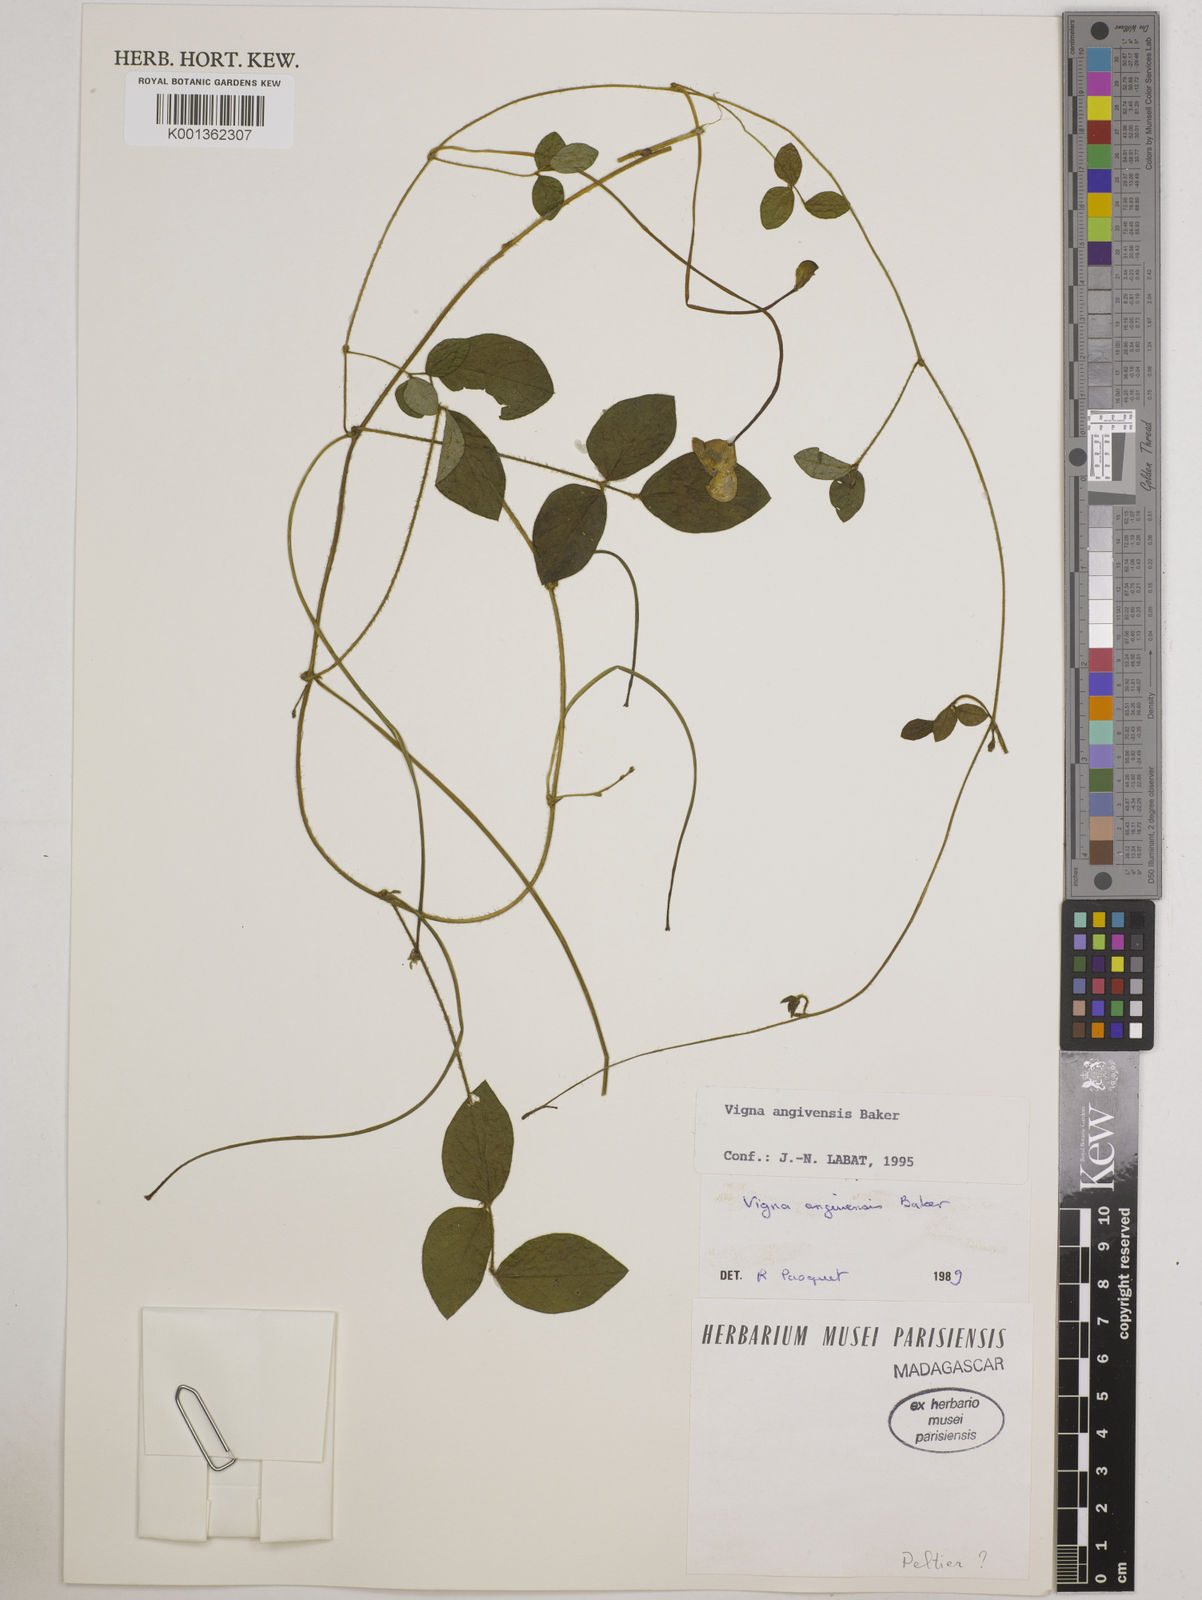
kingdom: Plantae
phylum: Tracheophyta
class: Magnoliopsida
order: Fabales
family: Fabaceae
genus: Vigna
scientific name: Vigna angivensis
